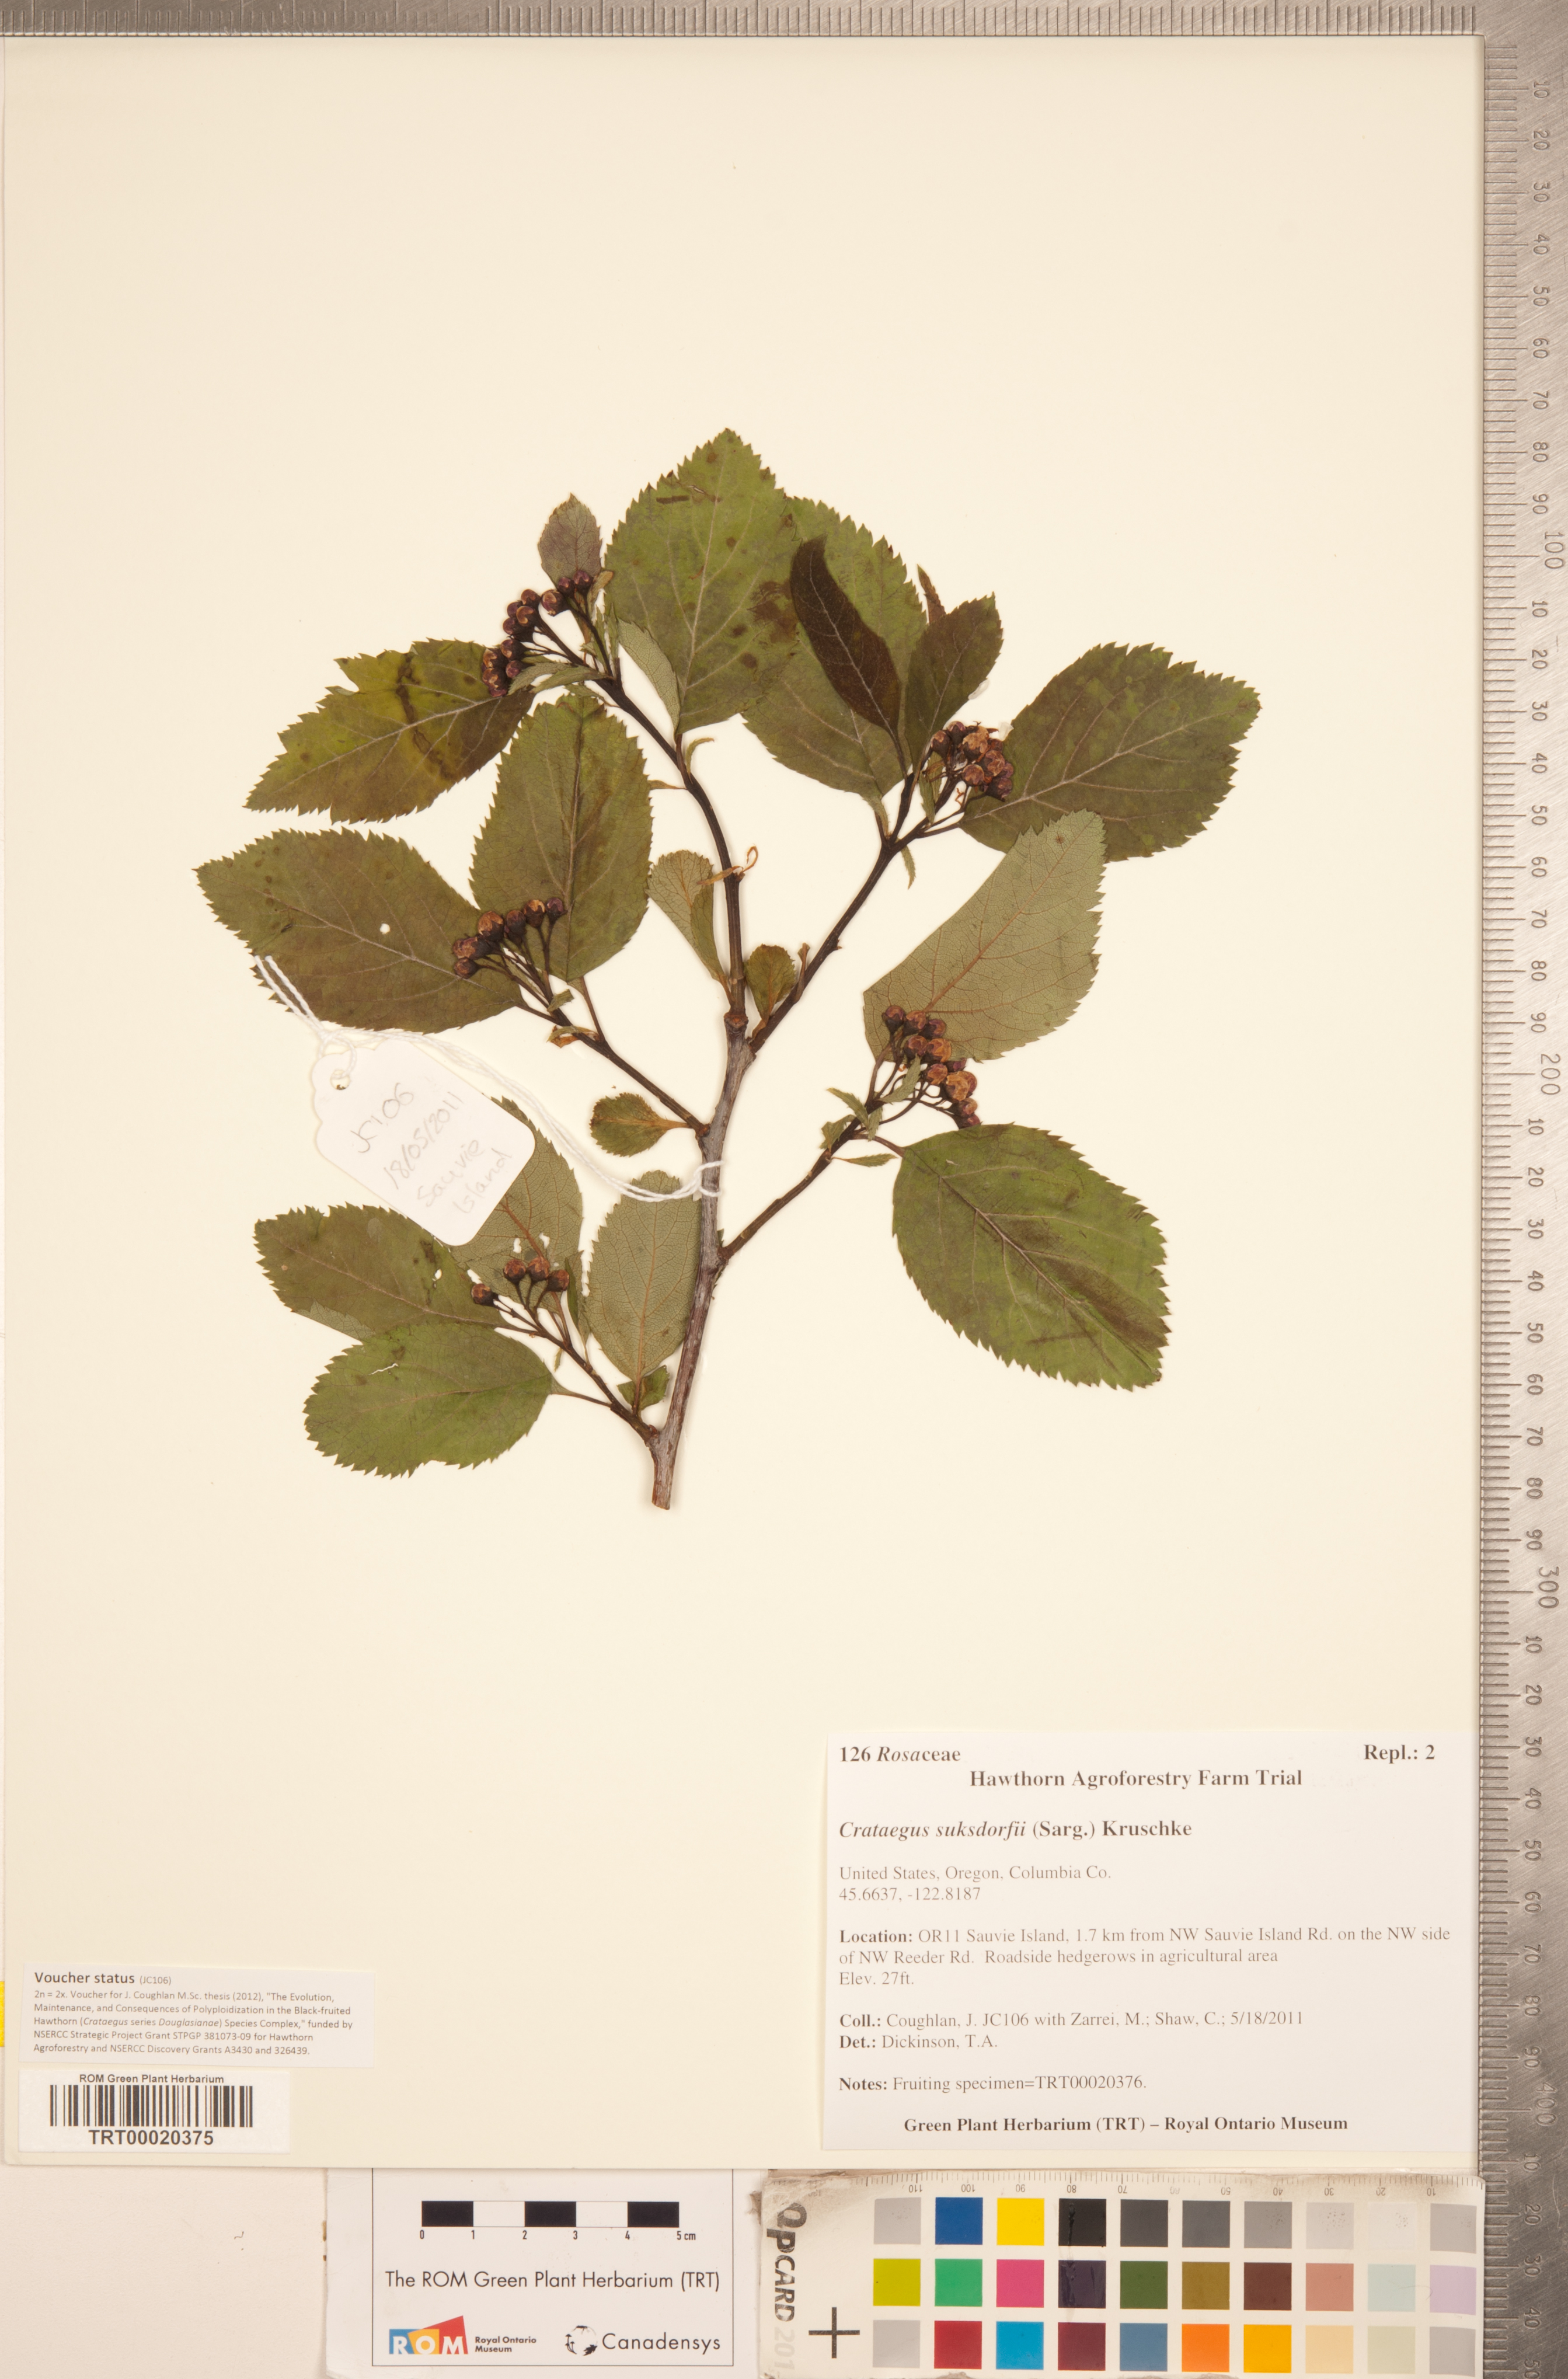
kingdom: Plantae
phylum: Tracheophyta
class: Magnoliopsida
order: Rosales
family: Rosaceae
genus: Crataegus
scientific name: Crataegus gaylussacia
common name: Huckleberry hawthorn
